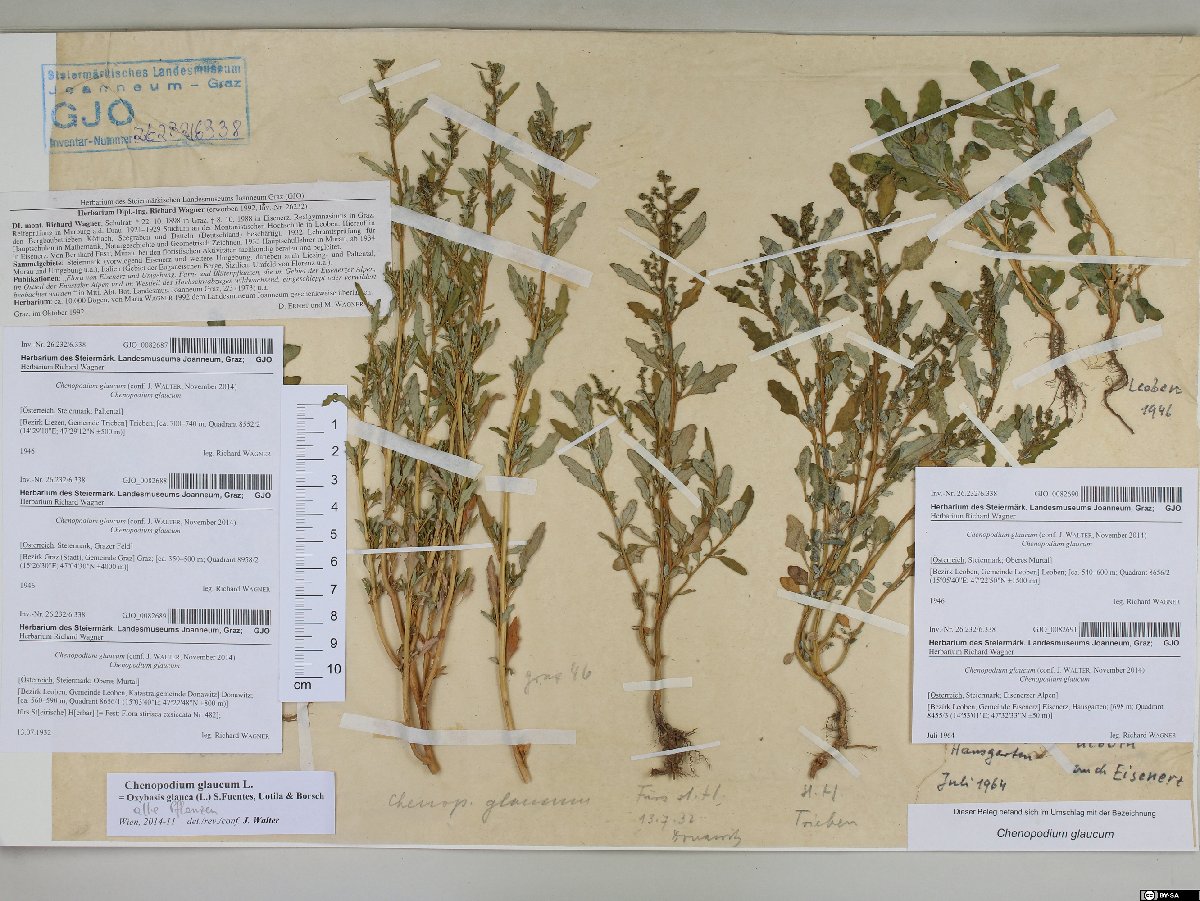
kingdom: Plantae
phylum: Tracheophyta
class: Magnoliopsida
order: Caryophyllales
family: Amaranthaceae
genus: Oxybasis
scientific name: Oxybasis glauca
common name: Glaucous goosefoot
